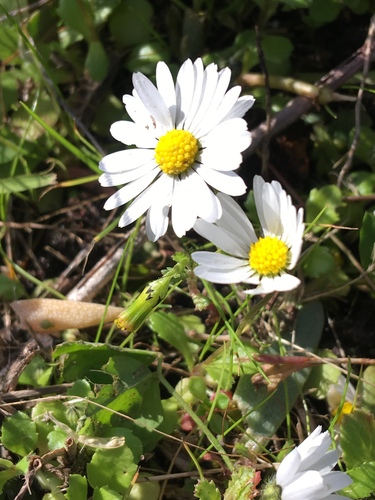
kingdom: Plantae
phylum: Tracheophyta
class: Magnoliopsida
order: Asterales
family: Asteraceae
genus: Bellis
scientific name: Bellis annua
